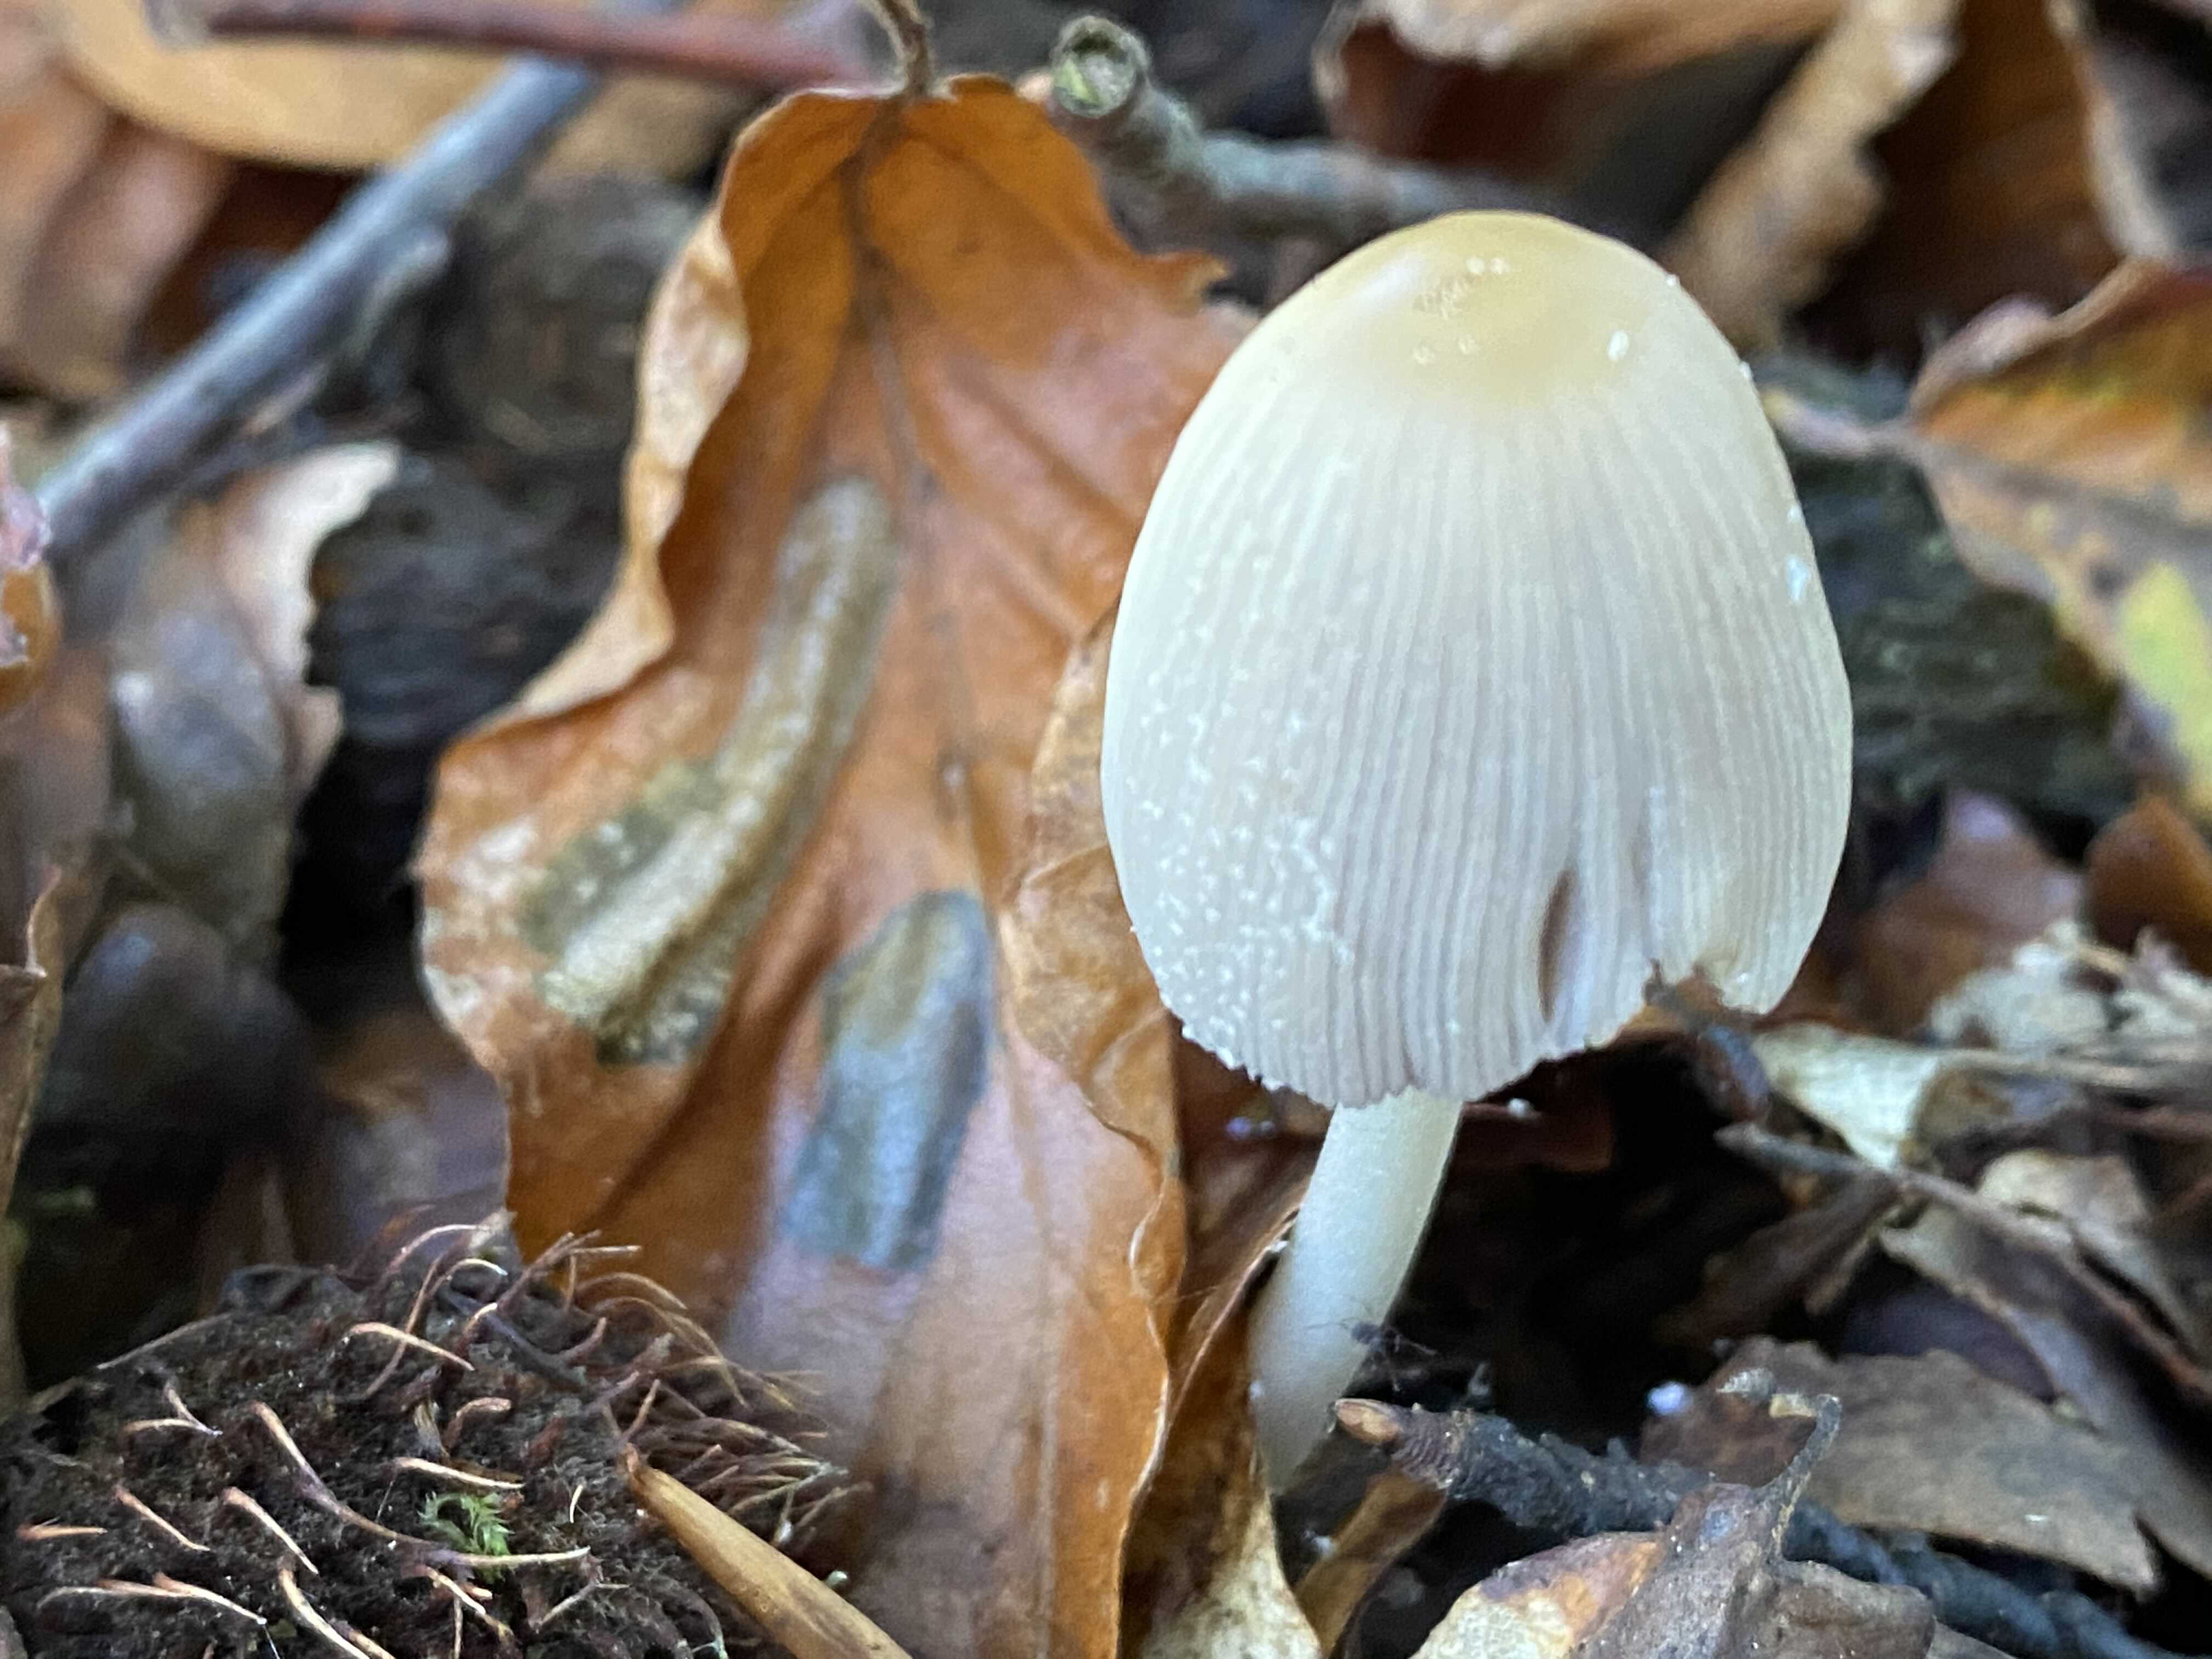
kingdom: Fungi
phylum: Basidiomycota
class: Agaricomycetes
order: Agaricales
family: Psathyrellaceae
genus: Coprinellus
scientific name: Coprinellus
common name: blækhat
